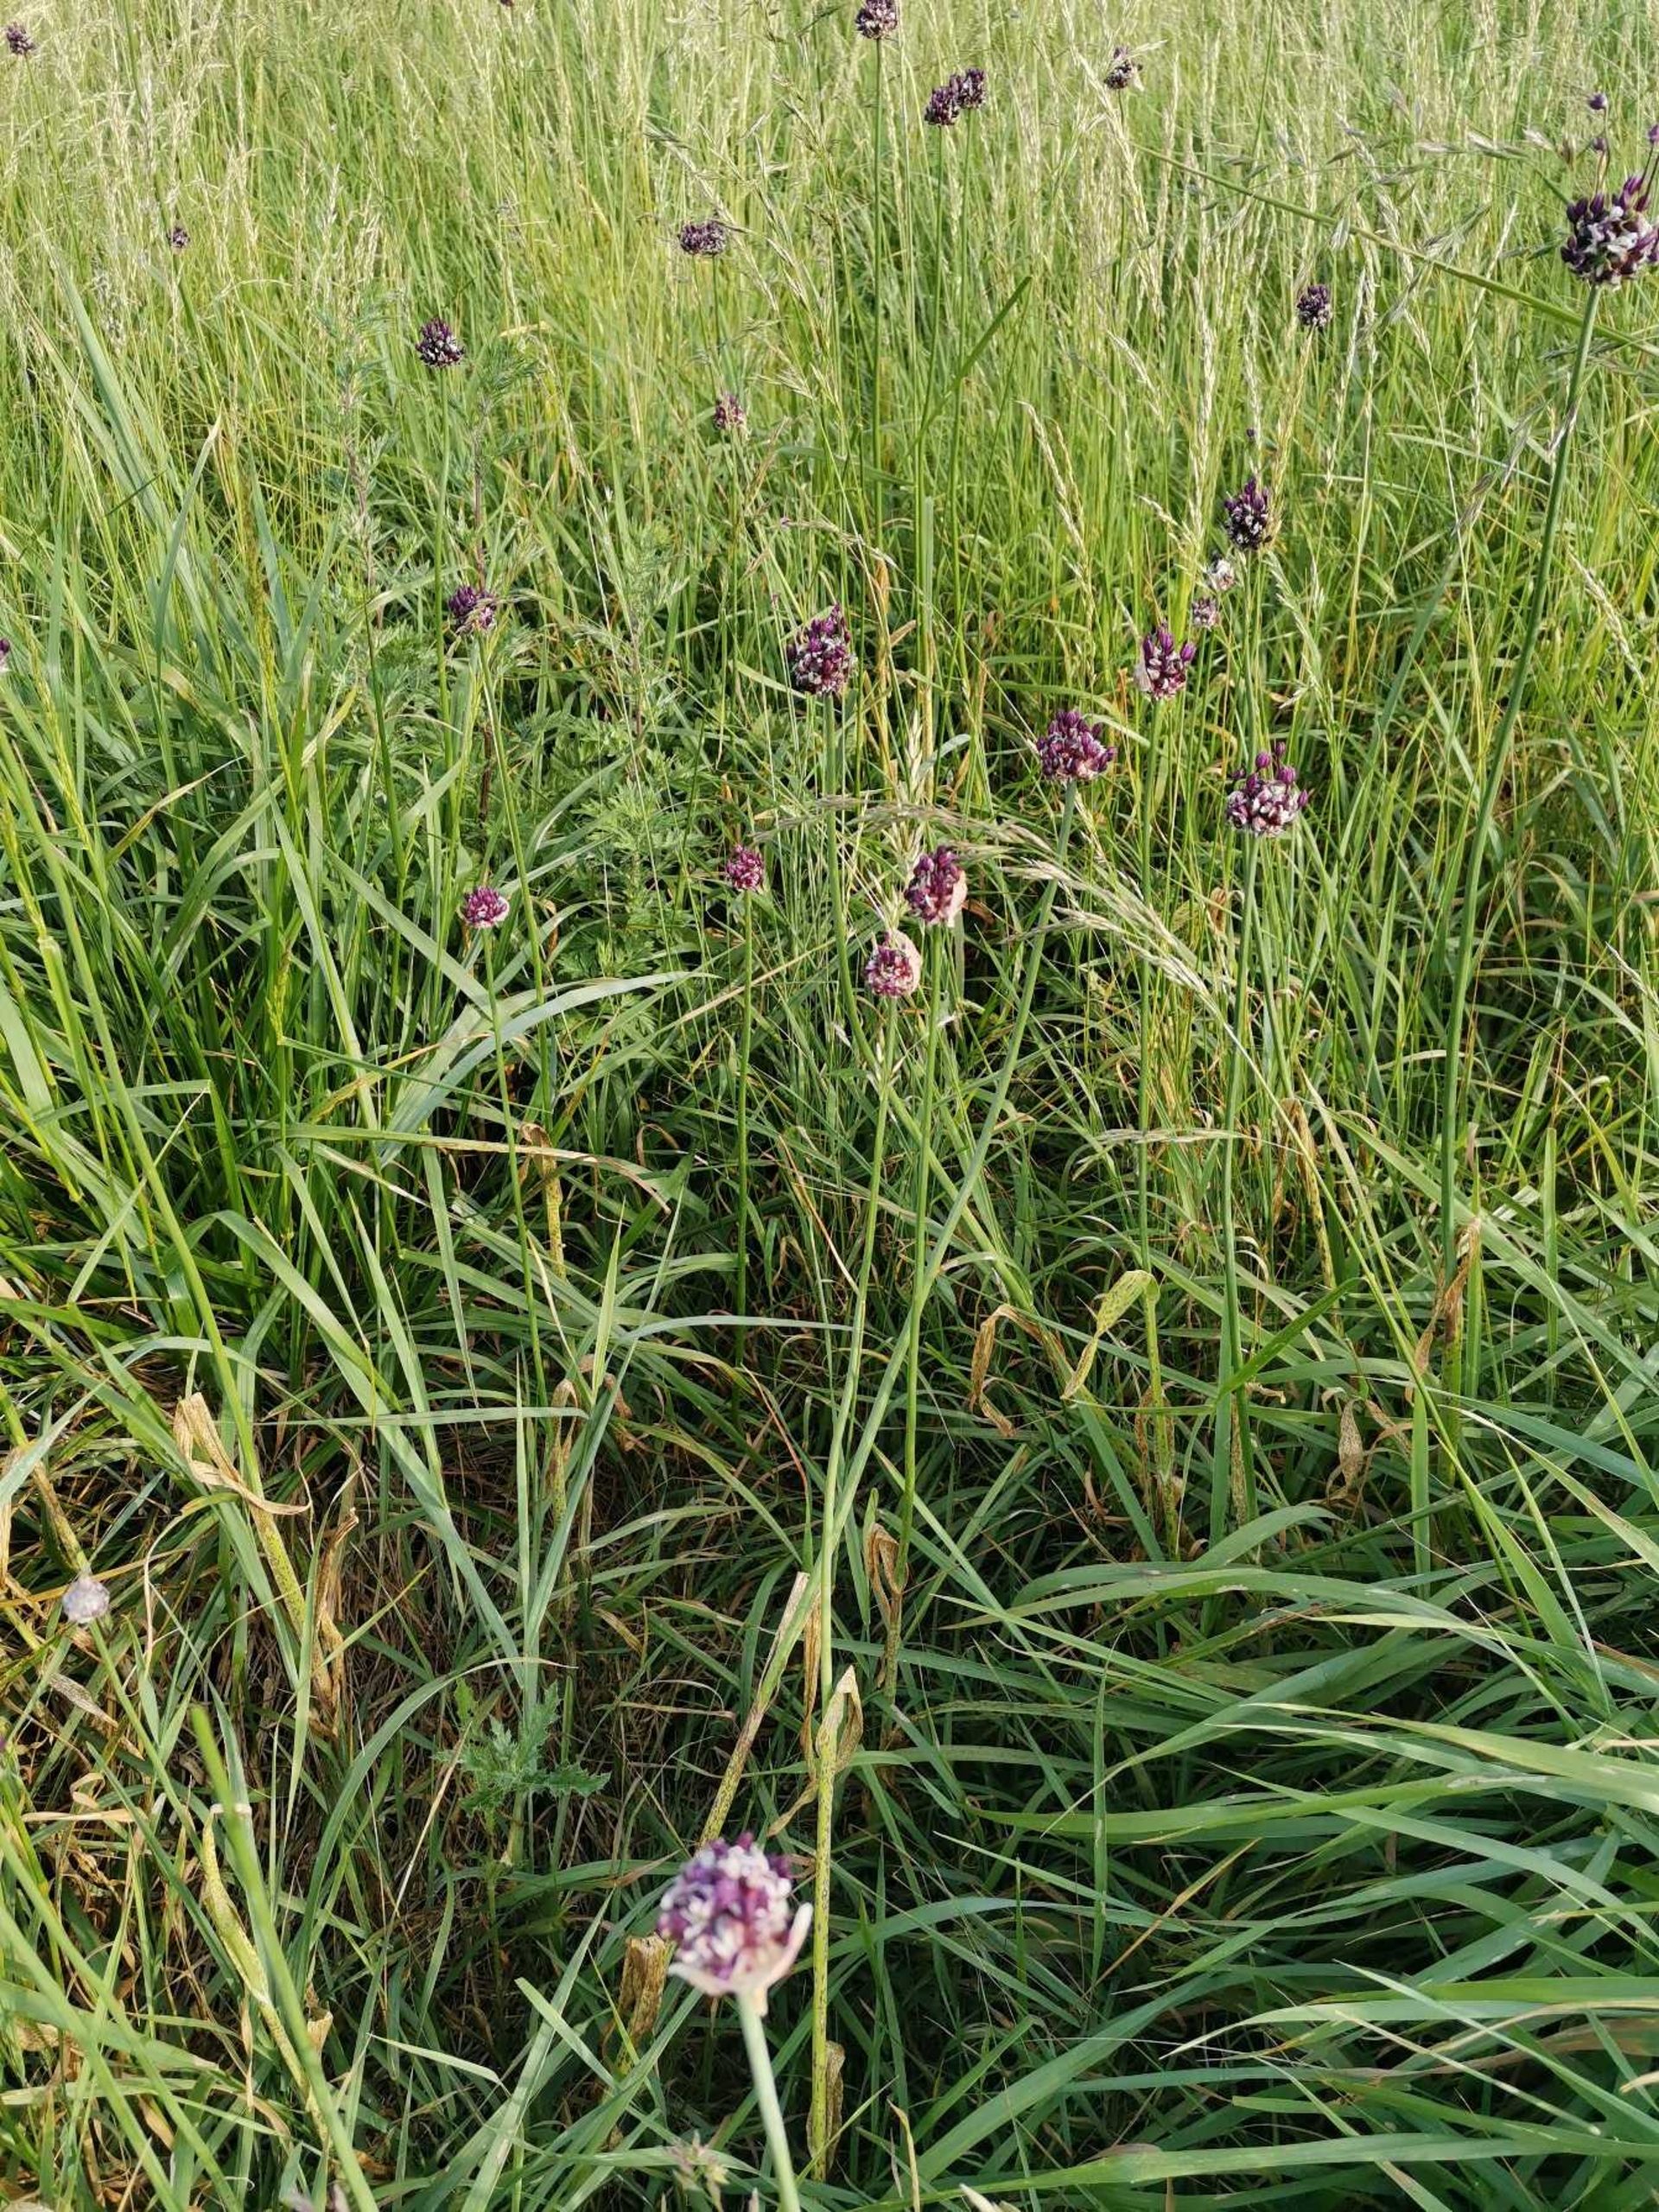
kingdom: Plantae
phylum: Tracheophyta
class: Liliopsida
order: Asparagales
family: Amaryllidaceae
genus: Allium
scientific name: Allium scorodoprasum
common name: Skov-løg
